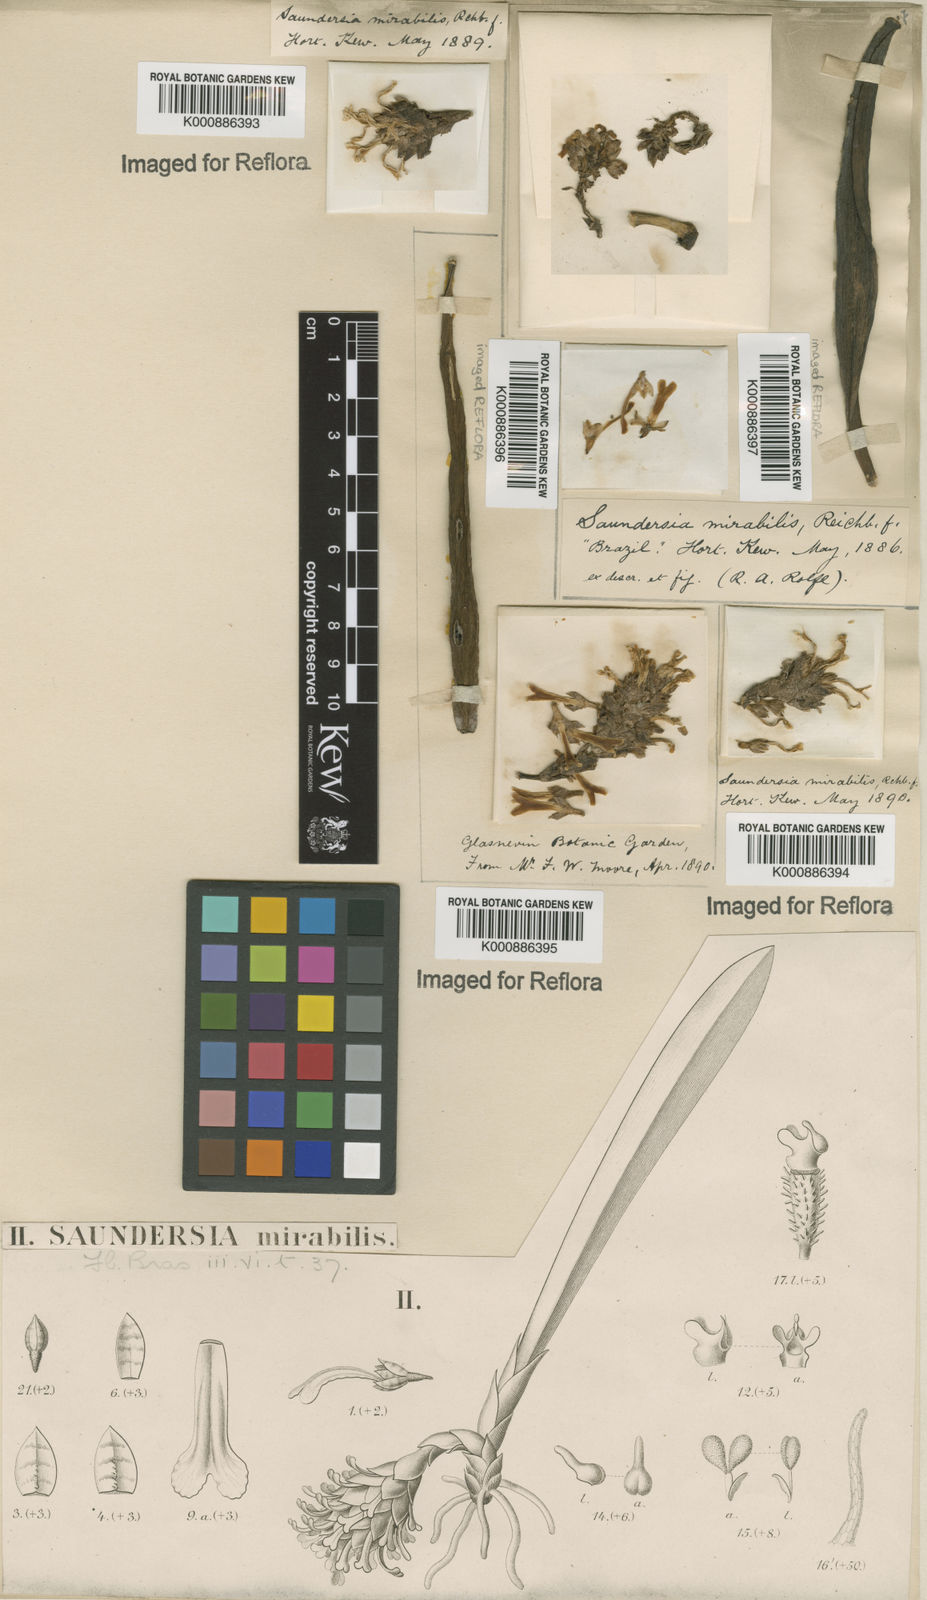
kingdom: Plantae
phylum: Tracheophyta
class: Liliopsida
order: Asparagales
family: Orchidaceae
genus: Saundersia
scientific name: Saundersia mirabilis
